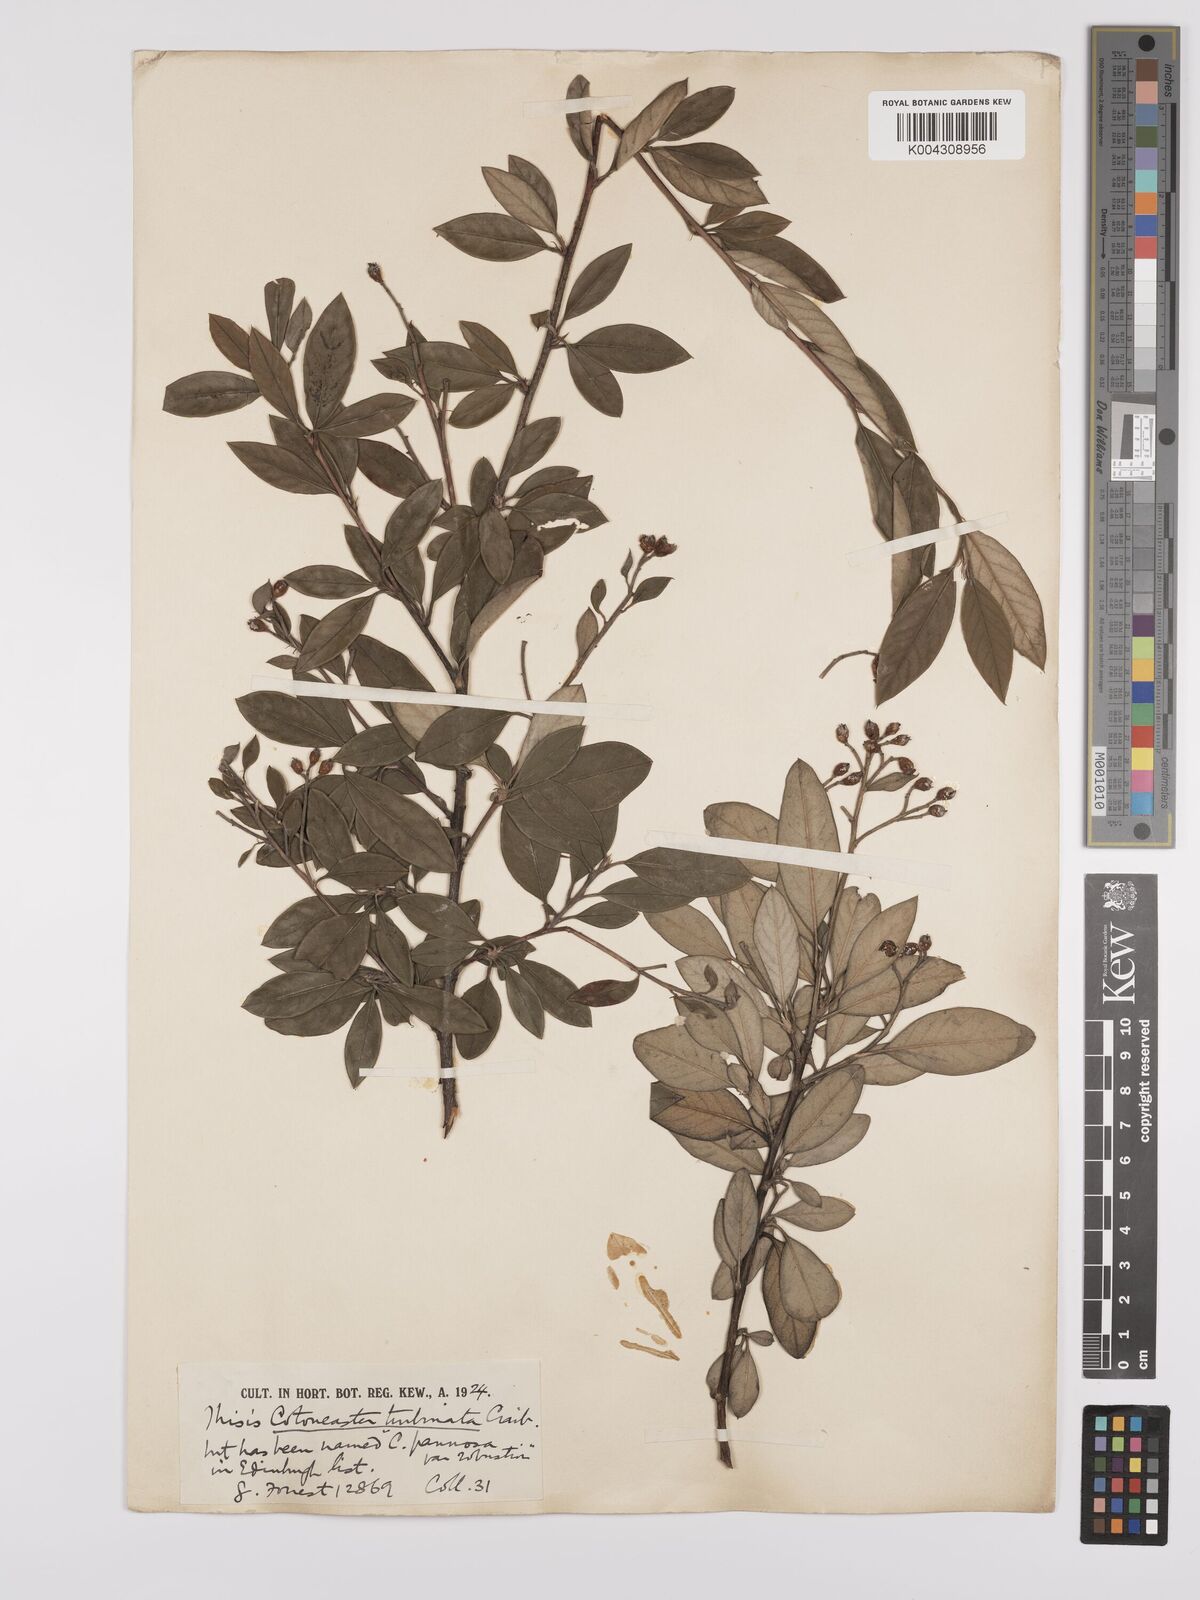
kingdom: Plantae
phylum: Tracheophyta
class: Magnoliopsida
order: Rosales
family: Rosaceae
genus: Cotoneaster
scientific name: Cotoneaster pannosus
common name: Silverleaf cotoneaster
